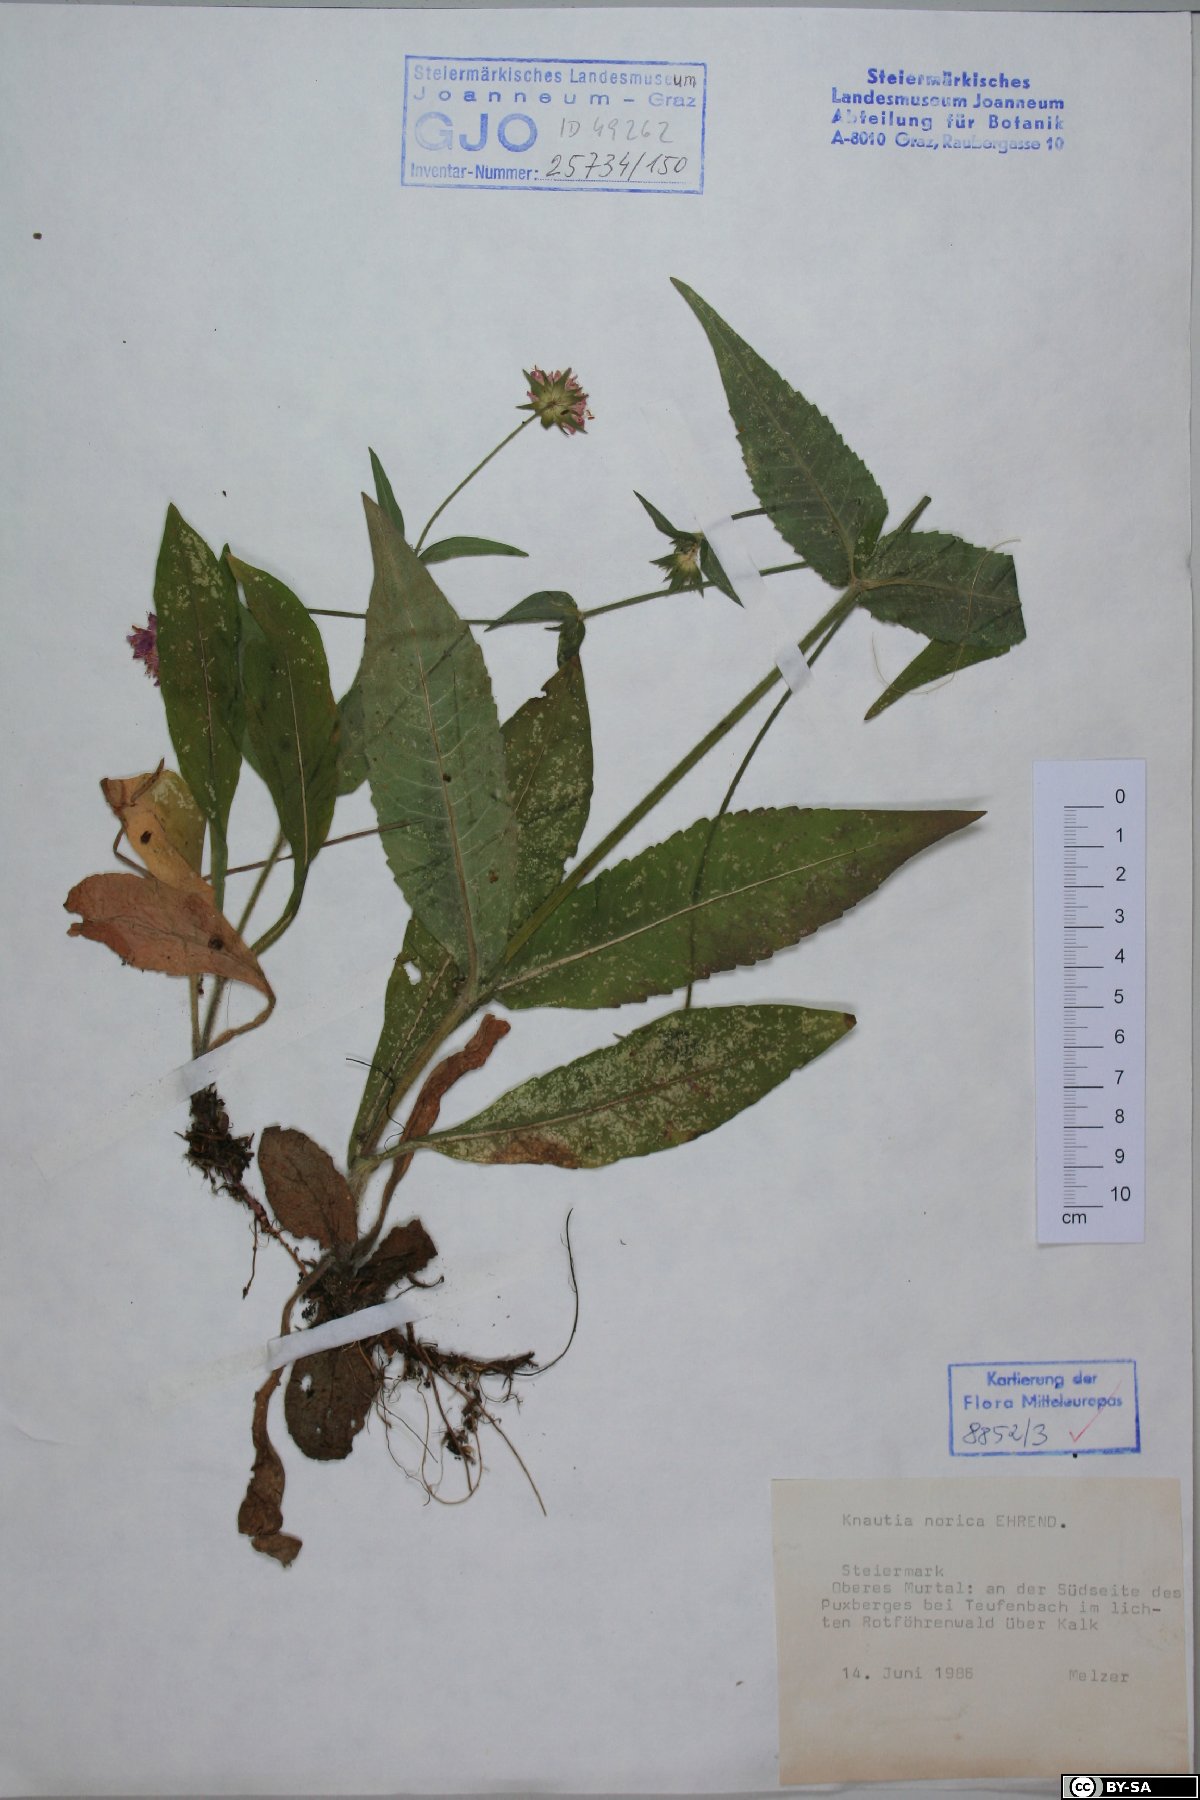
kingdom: Plantae
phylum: Tracheophyta
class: Magnoliopsida
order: Dipsacales
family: Caprifoliaceae
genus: Knautia
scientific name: Knautia norica
